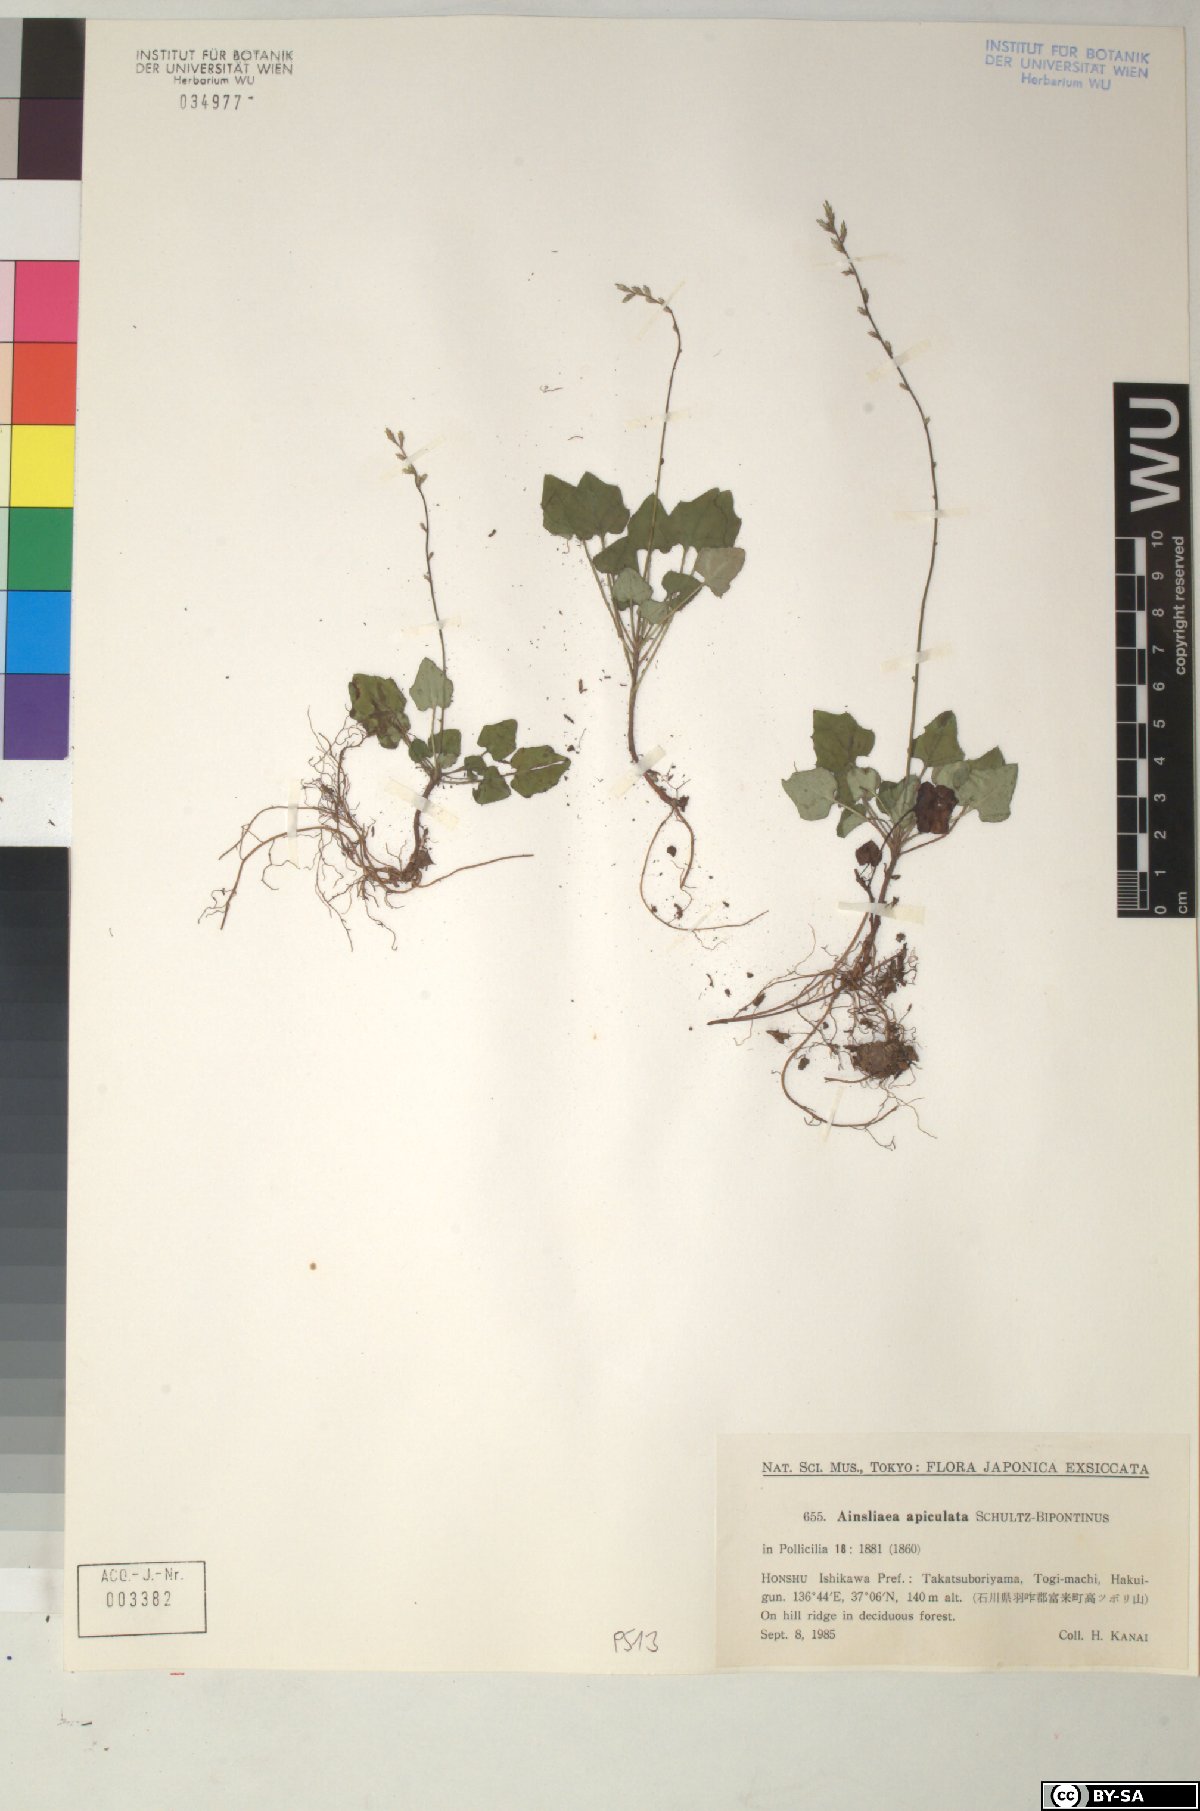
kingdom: Plantae
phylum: Tracheophyta
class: Magnoliopsida
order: Asterales
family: Asteraceae
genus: Ainsliaea
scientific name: Ainsliaea apiculata
